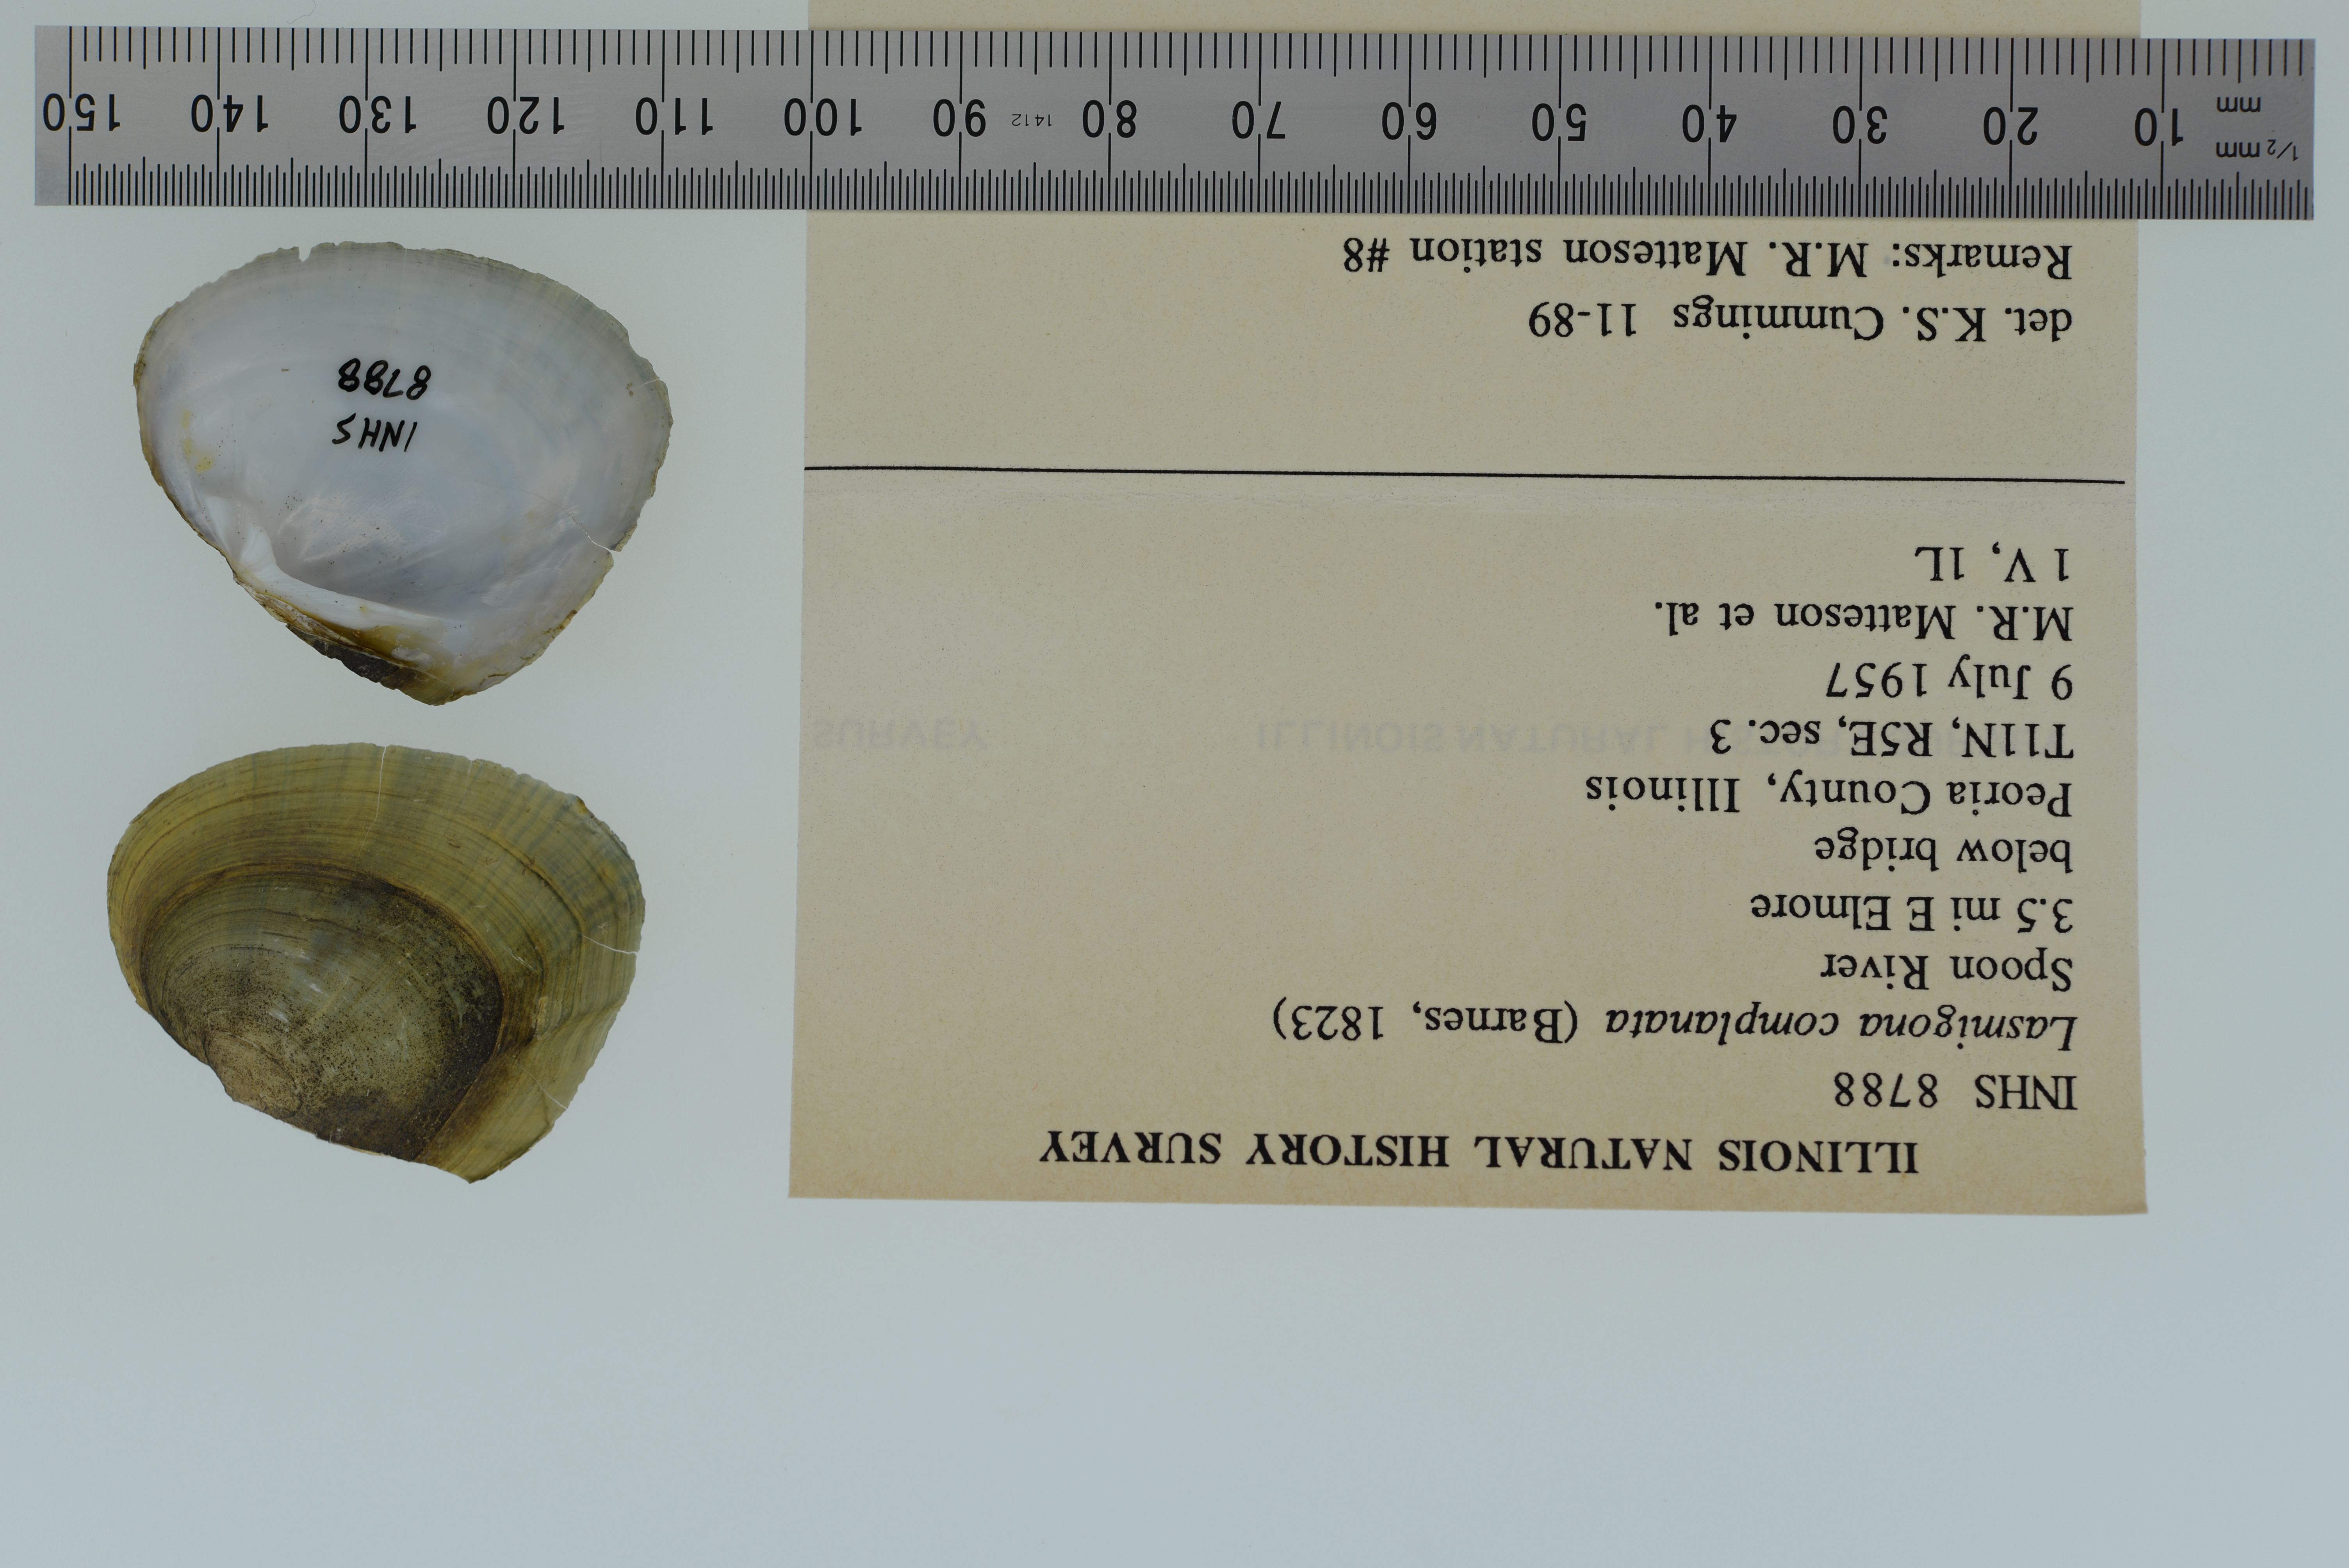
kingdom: Animalia
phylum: Mollusca
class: Bivalvia
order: Unionida
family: Unionidae
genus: Lasmigona
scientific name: Lasmigona complanata
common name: White heelsplitter
